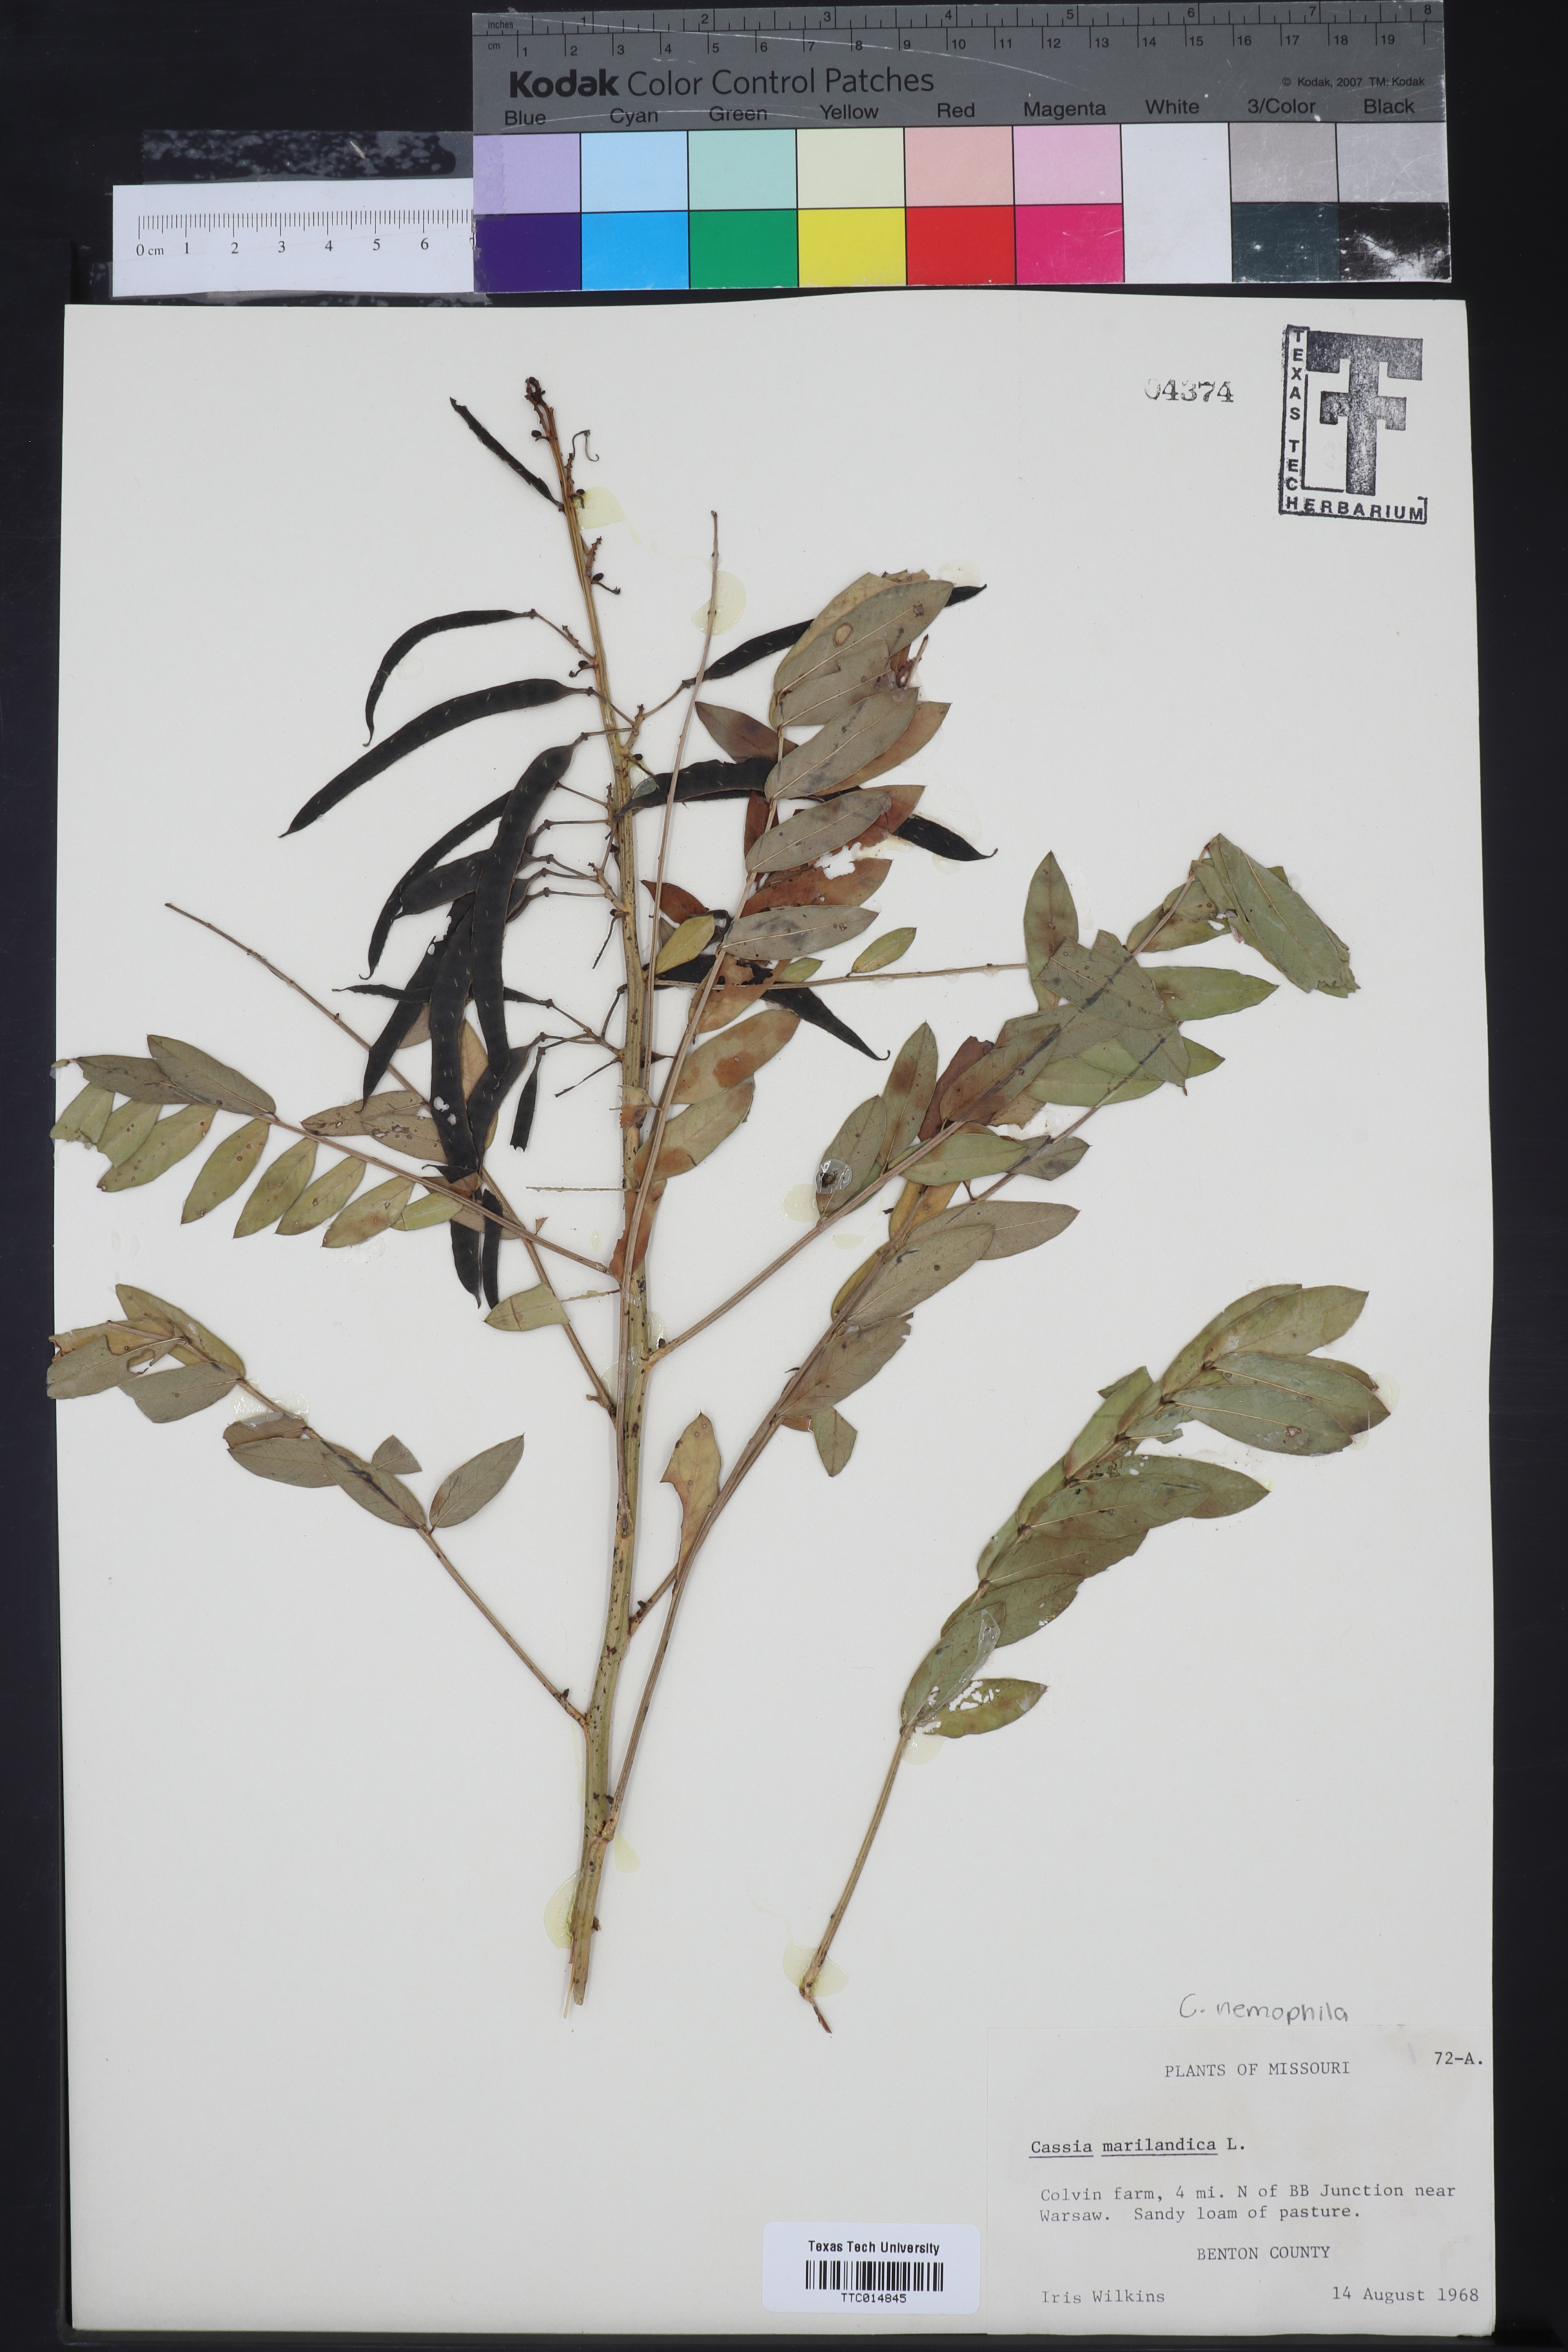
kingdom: Plantae
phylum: Tracheophyta
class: Magnoliopsida
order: Fabales
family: Fabaceae
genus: Senna
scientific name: Senna marilandica
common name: American senna
